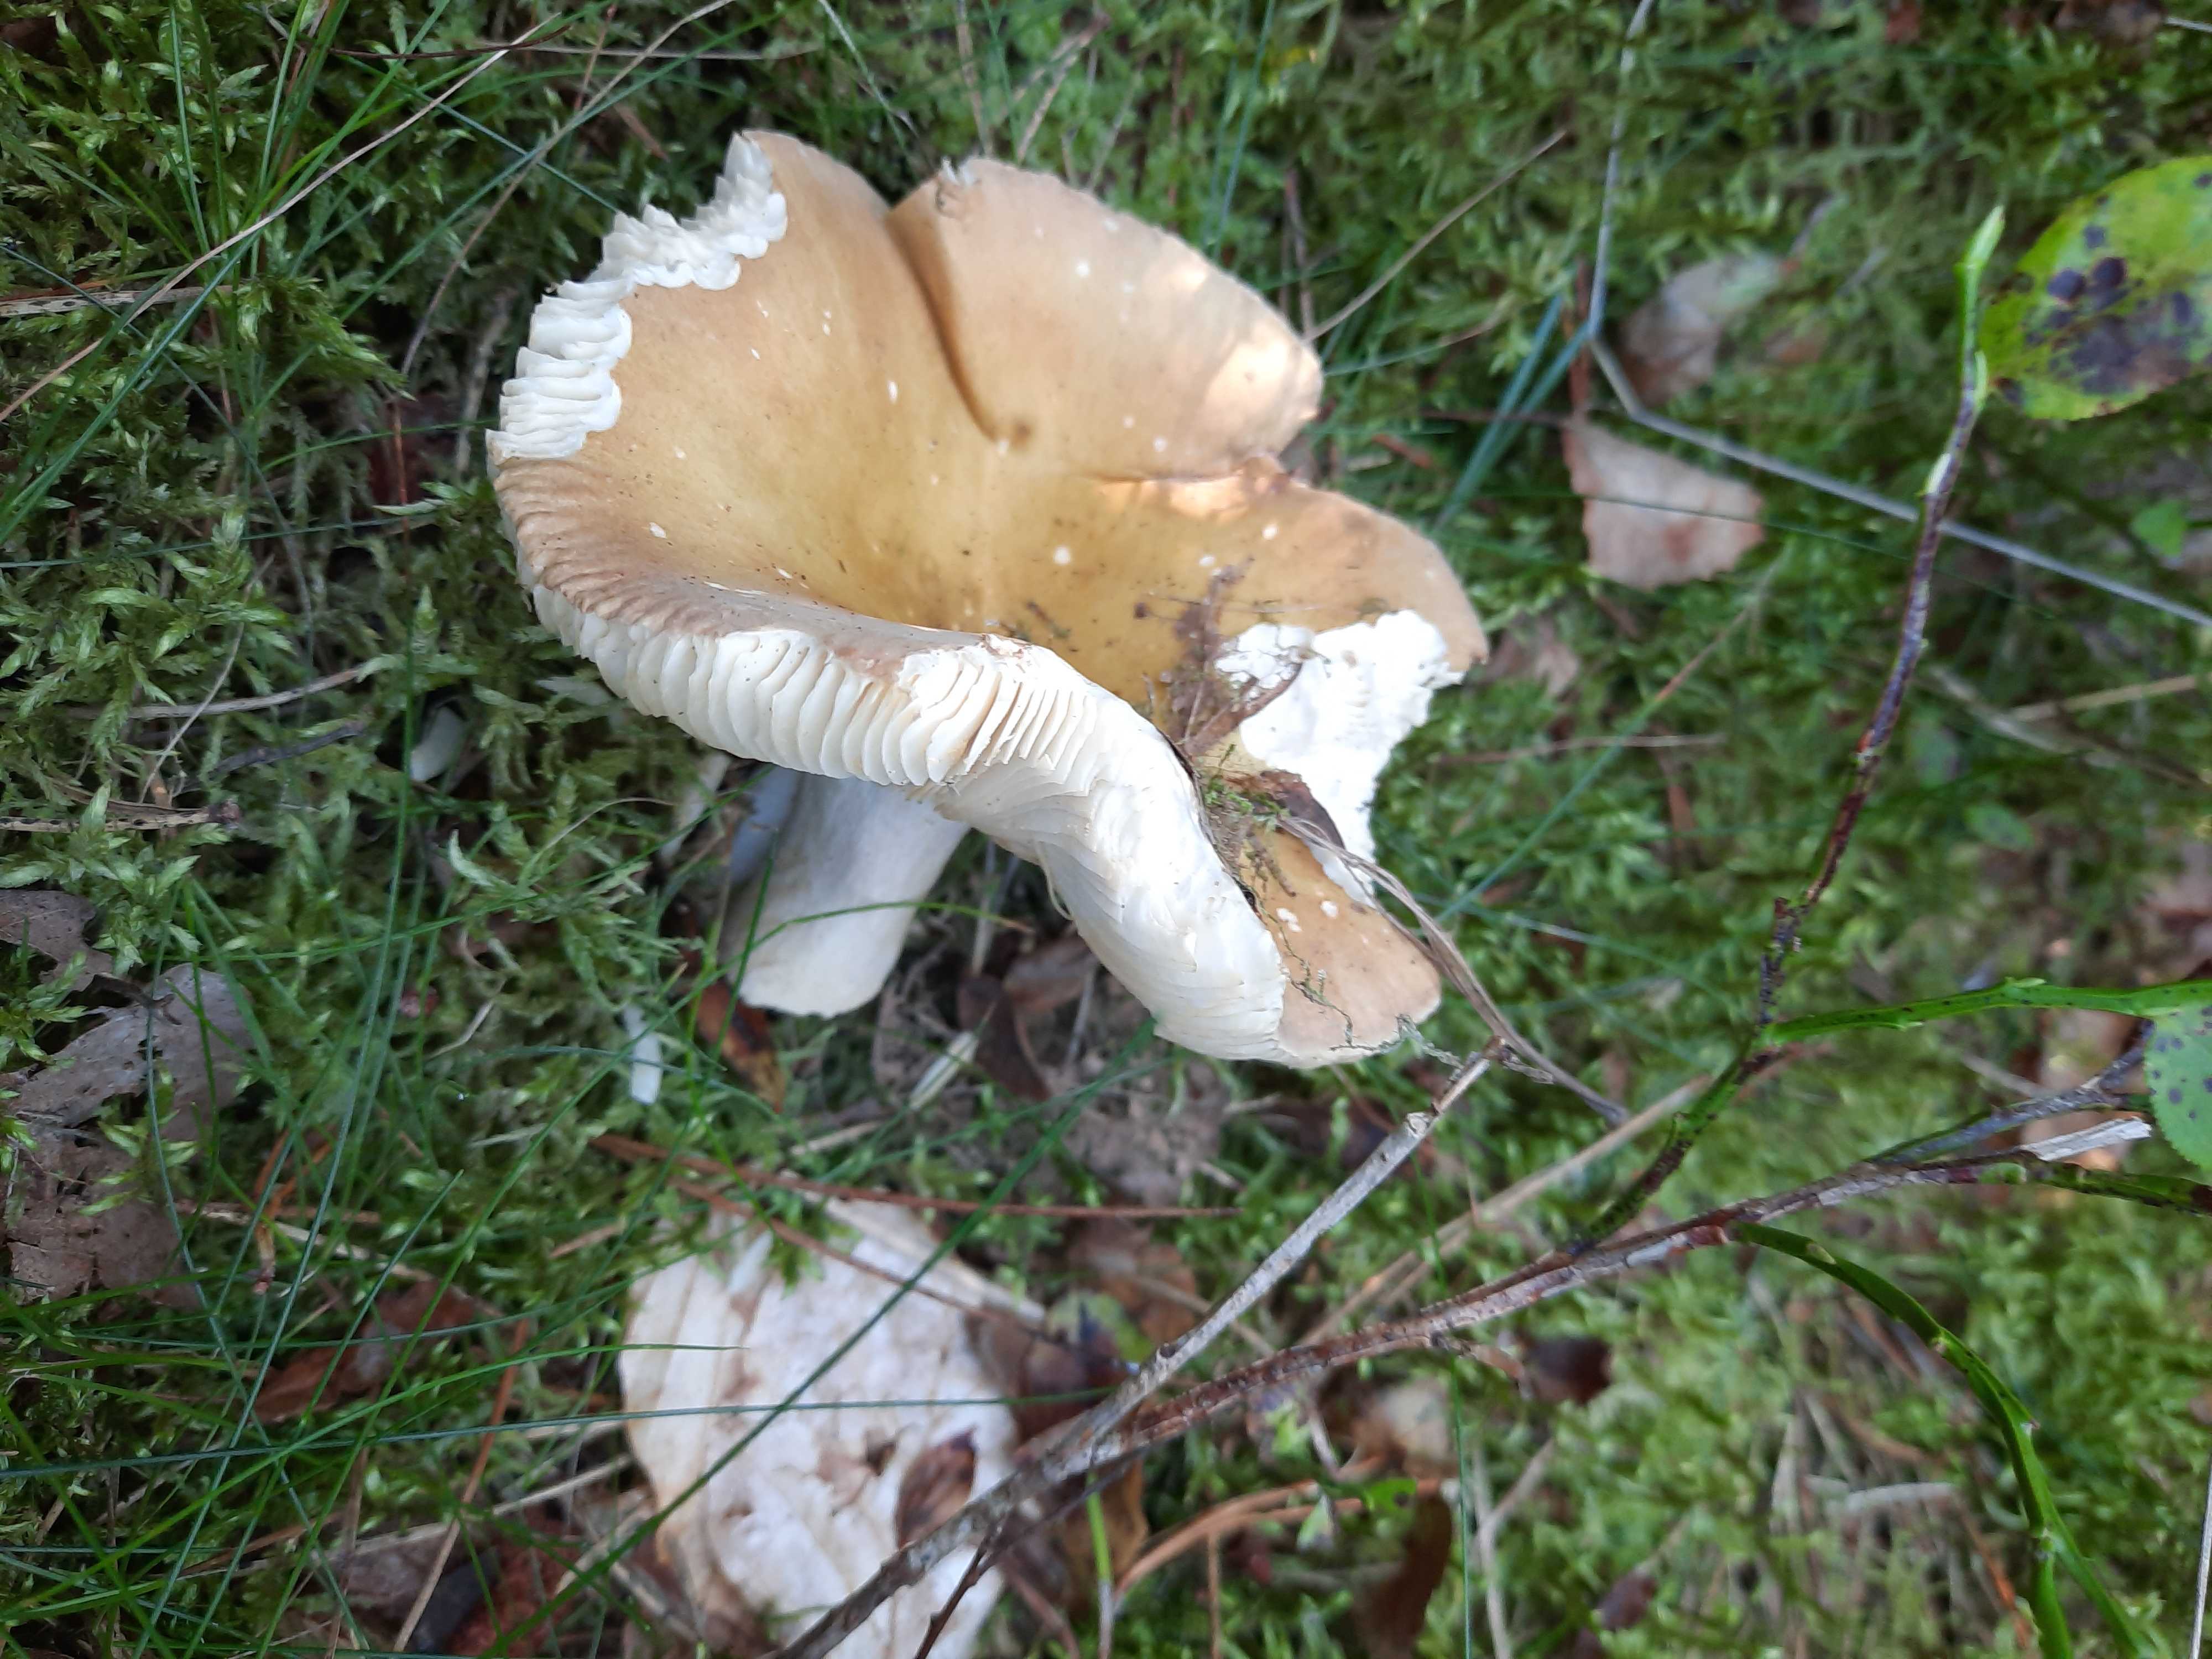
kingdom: Fungi
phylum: Basidiomycota
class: Agaricomycetes
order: Russulales
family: Russulaceae
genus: Russula
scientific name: Russula
